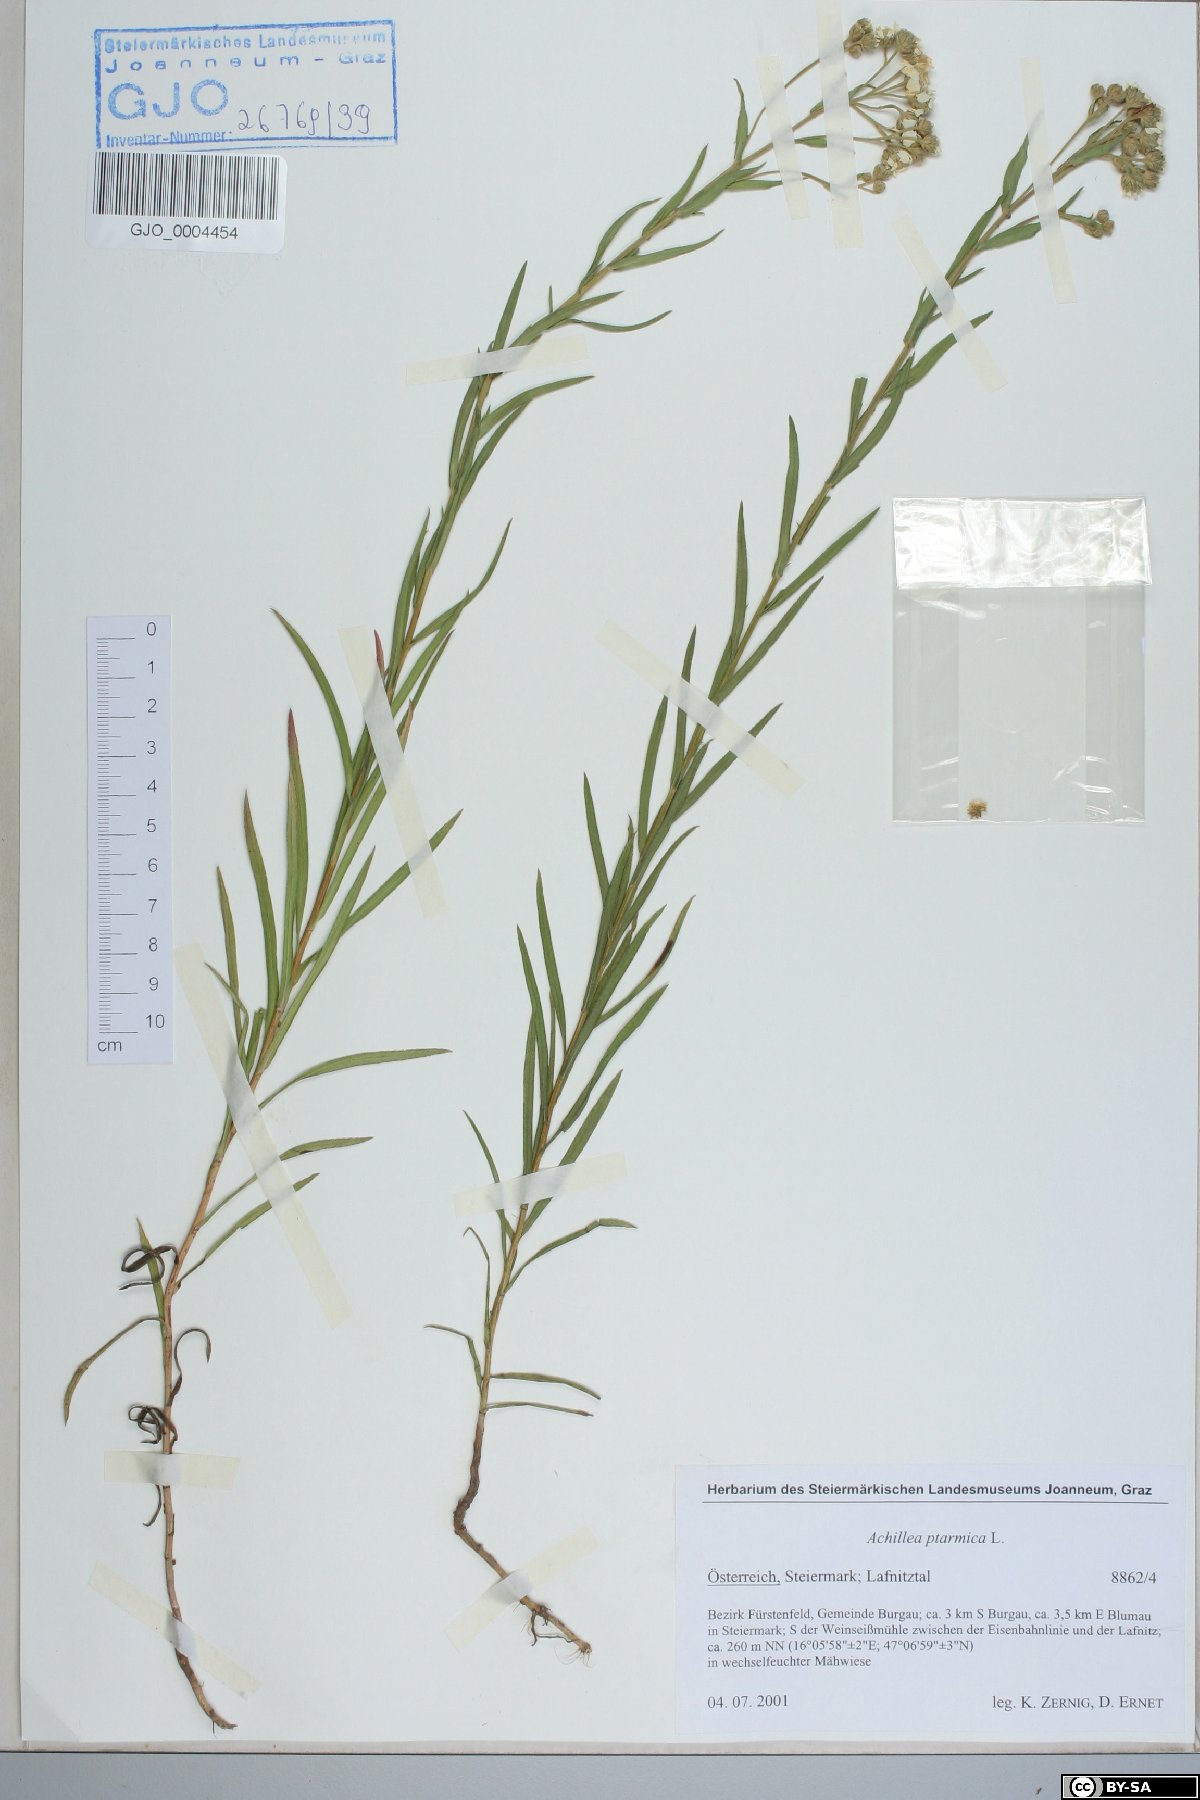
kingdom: Plantae
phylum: Tracheophyta
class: Magnoliopsida
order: Asterales
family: Asteraceae
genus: Achillea
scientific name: Achillea ptarmica
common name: Sneezeweed
